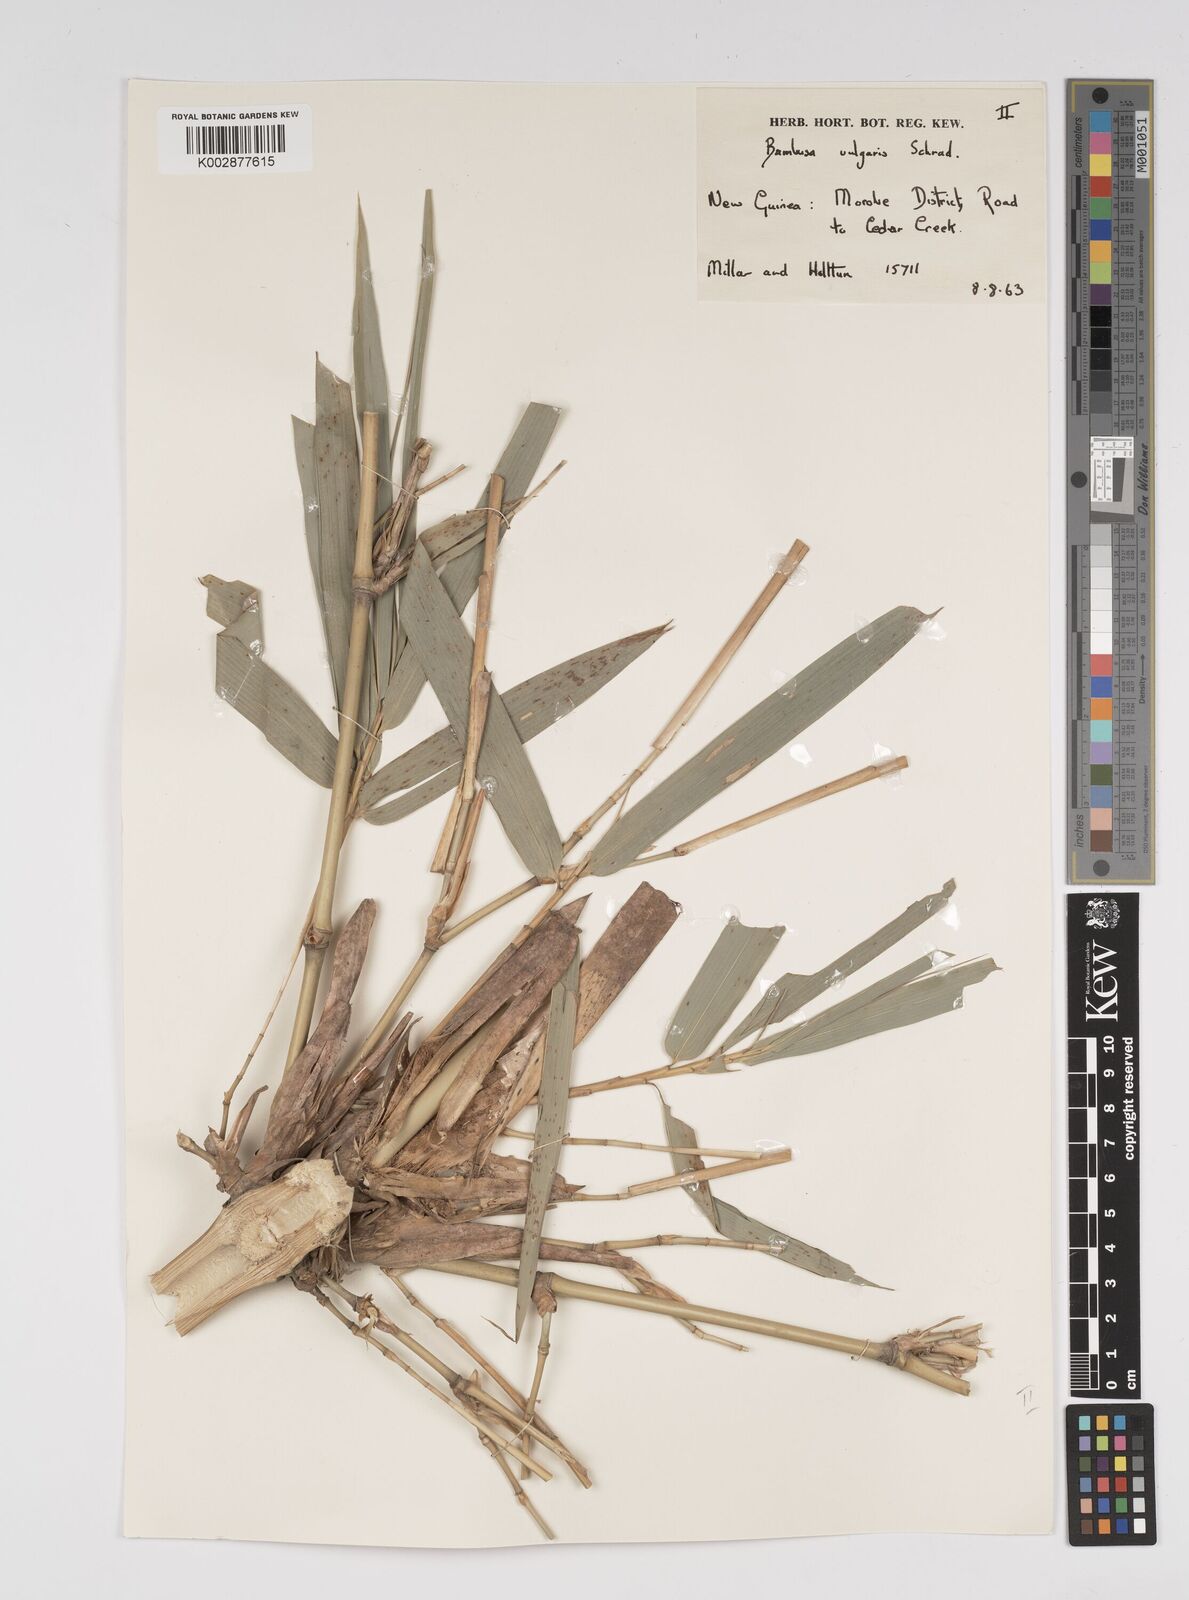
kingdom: Plantae
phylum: Tracheophyta
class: Liliopsida
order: Poales
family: Poaceae
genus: Bambusa
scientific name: Bambusa balcooa
